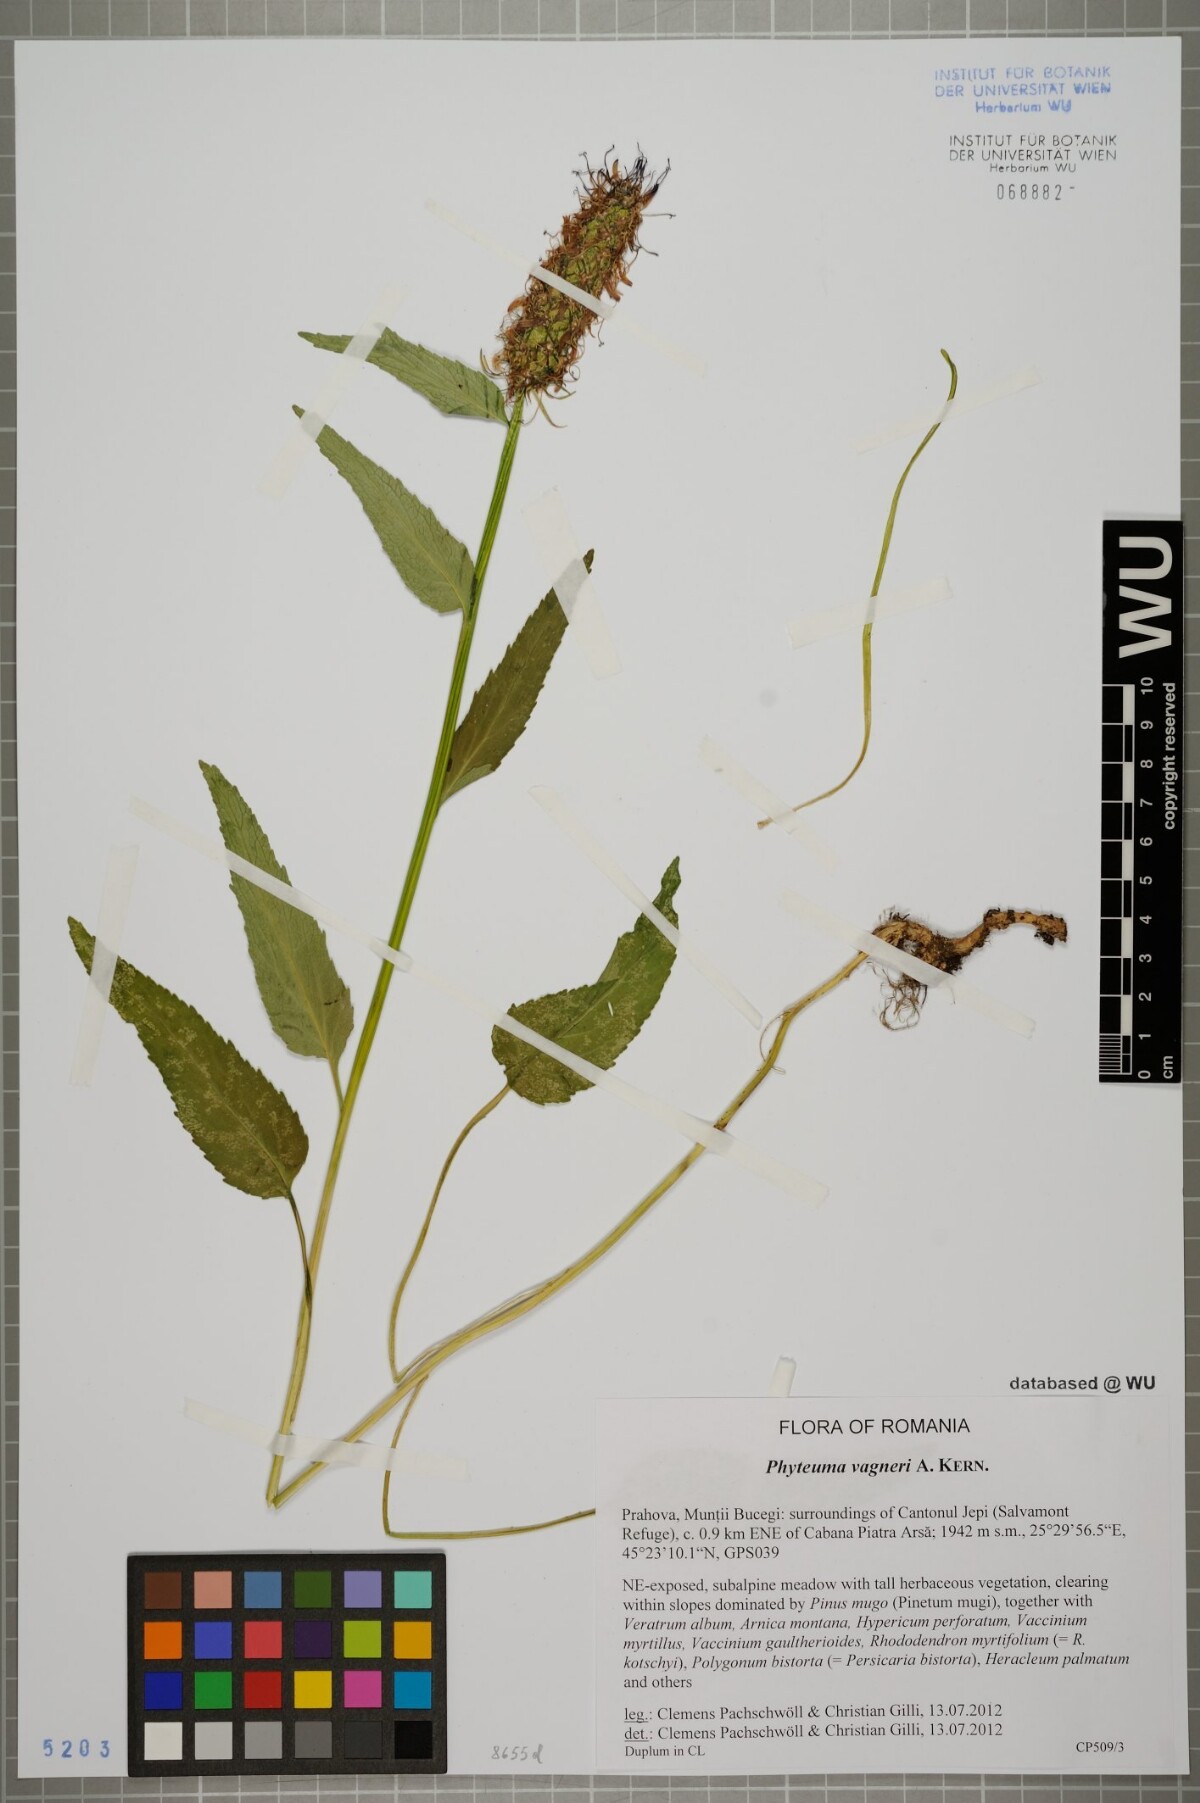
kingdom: Plantae
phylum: Tracheophyta
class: Magnoliopsida
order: Asterales
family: Campanulaceae
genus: Phyteuma
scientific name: Phyteuma vagneri
